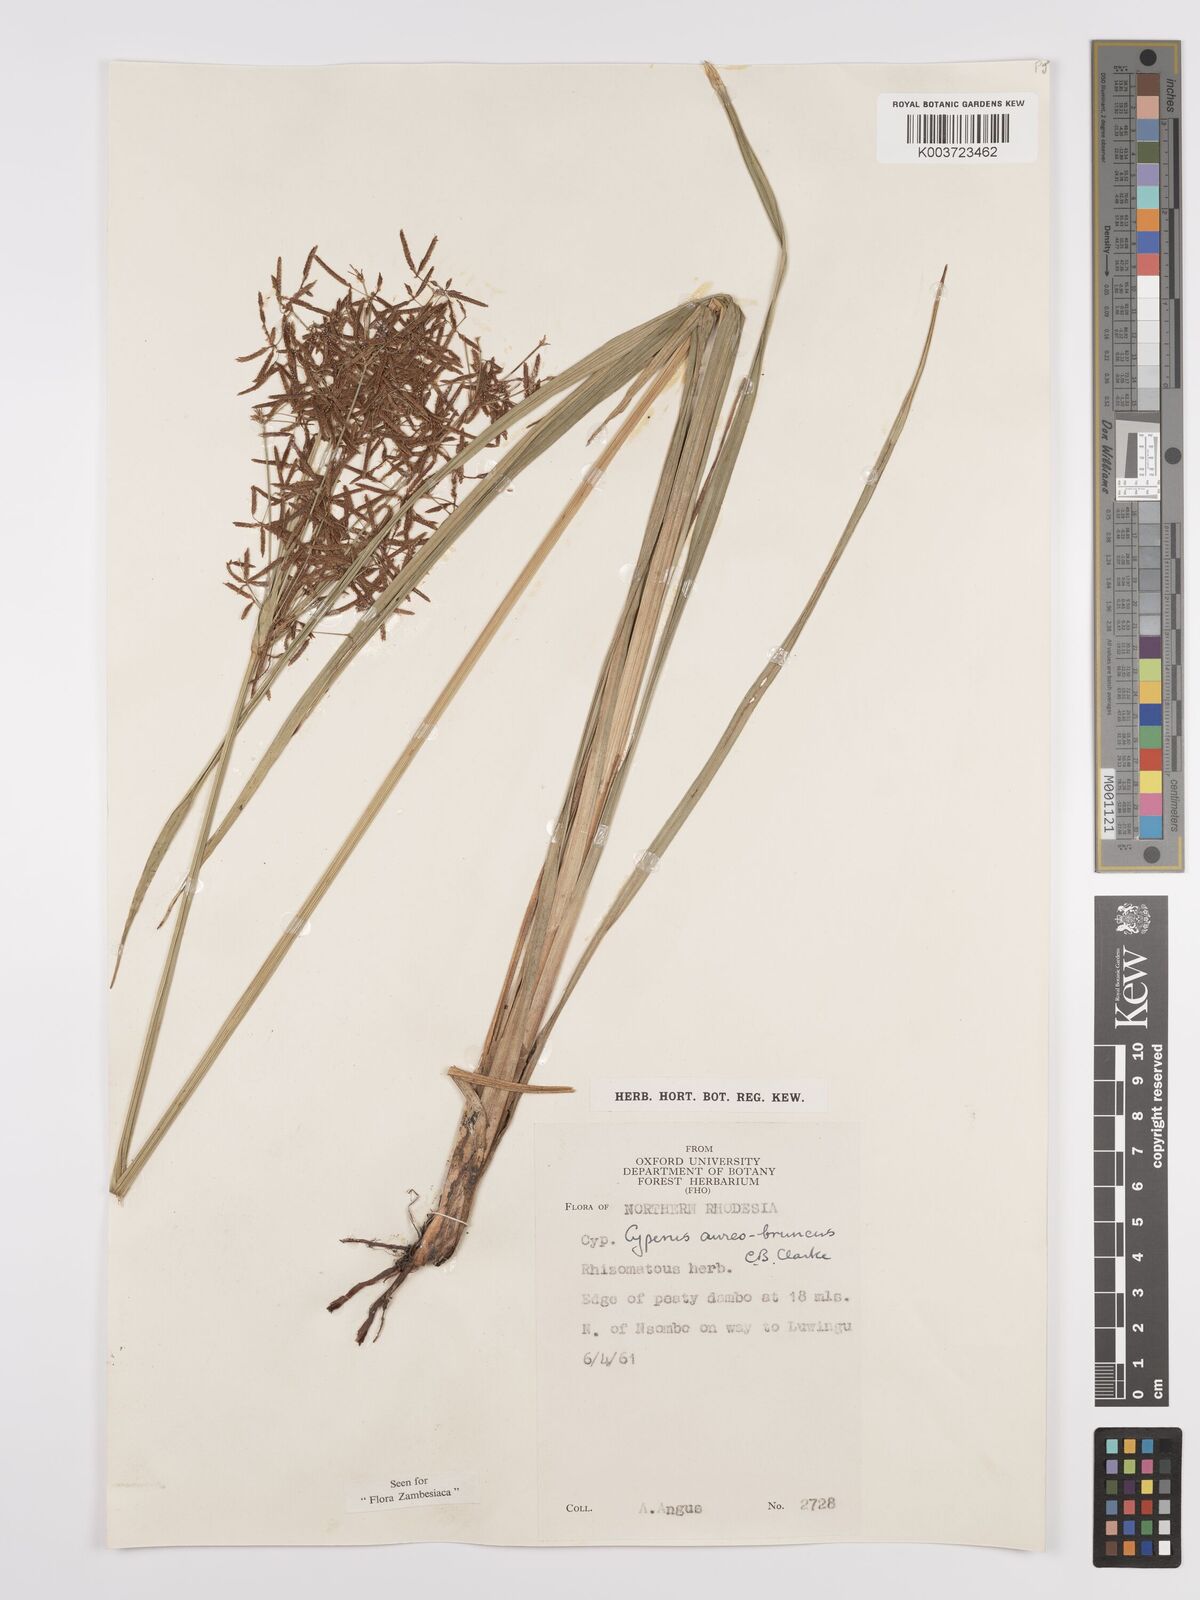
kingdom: Plantae
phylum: Tracheophyta
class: Liliopsida
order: Poales
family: Cyperaceae
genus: Cyperus
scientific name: Cyperus aureobrunneus
